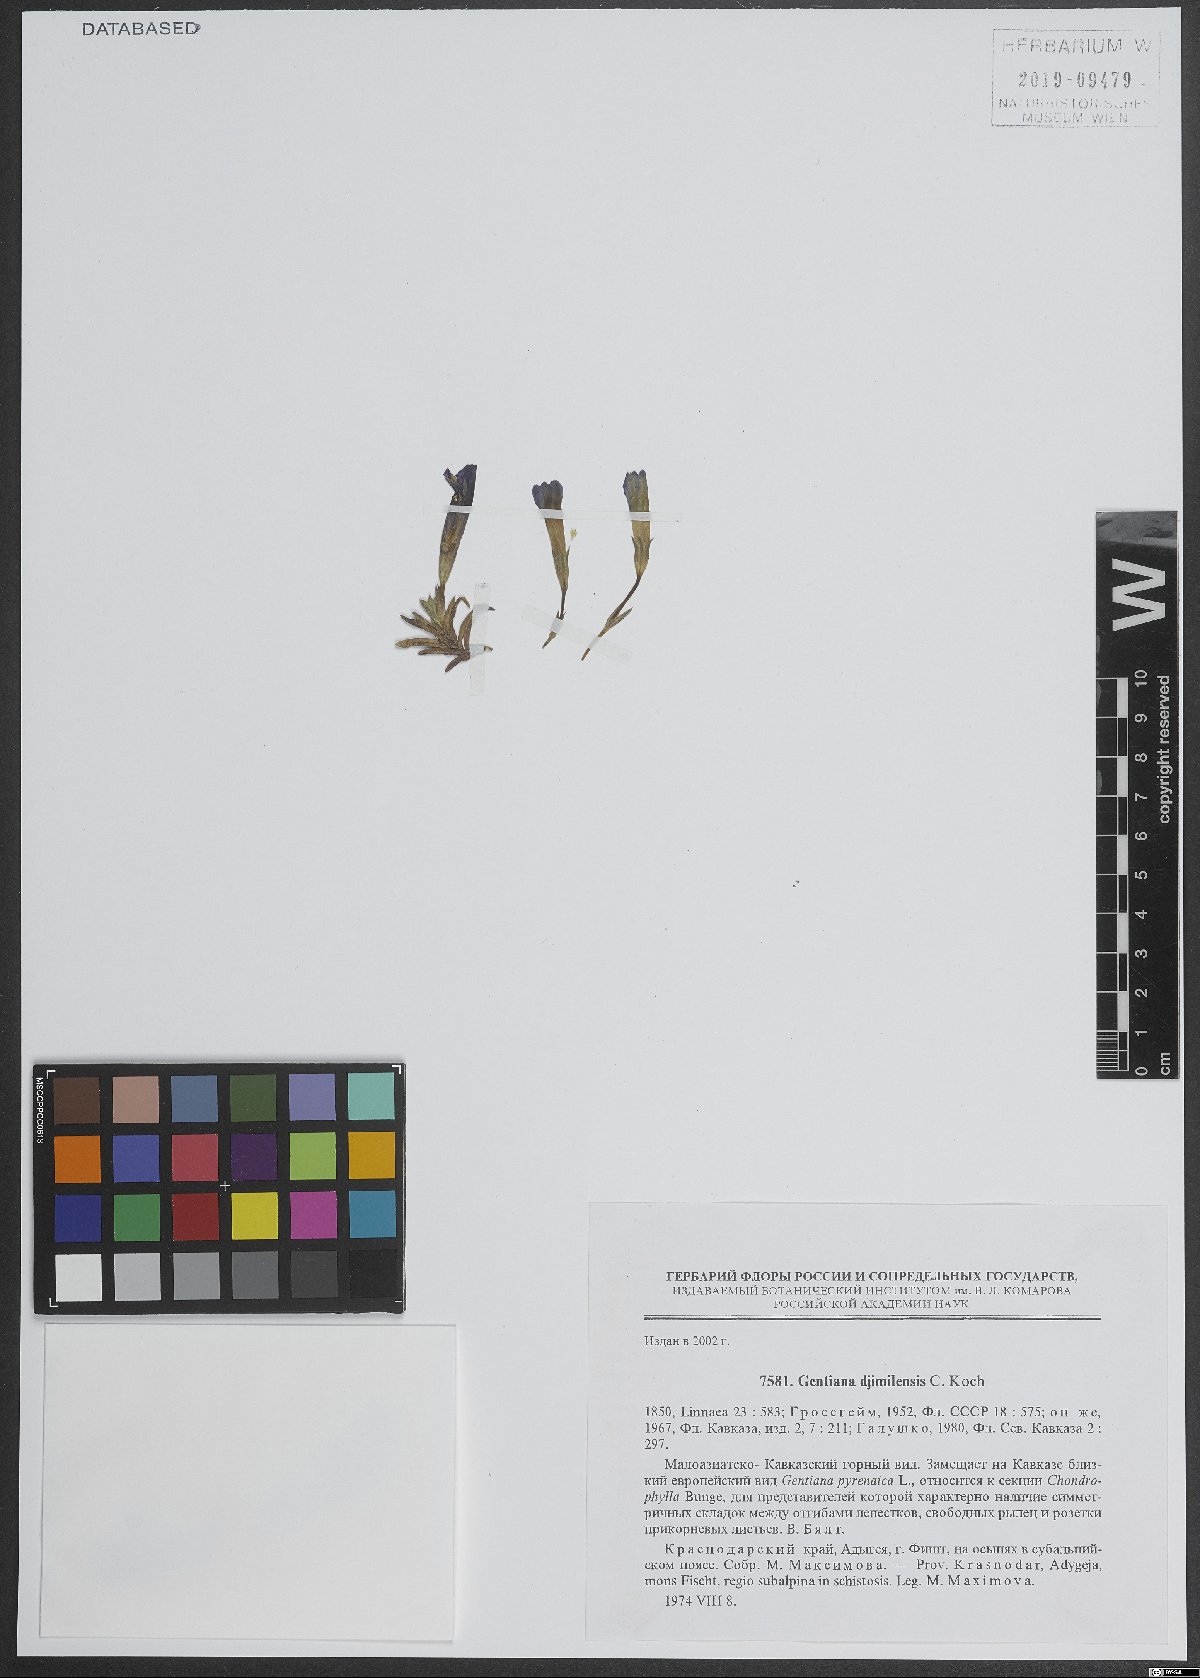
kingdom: Plantae
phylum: Tracheophyta
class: Magnoliopsida
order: Gentianales
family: Gentianaceae
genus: Gentiana
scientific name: Gentiana dshimilensis
